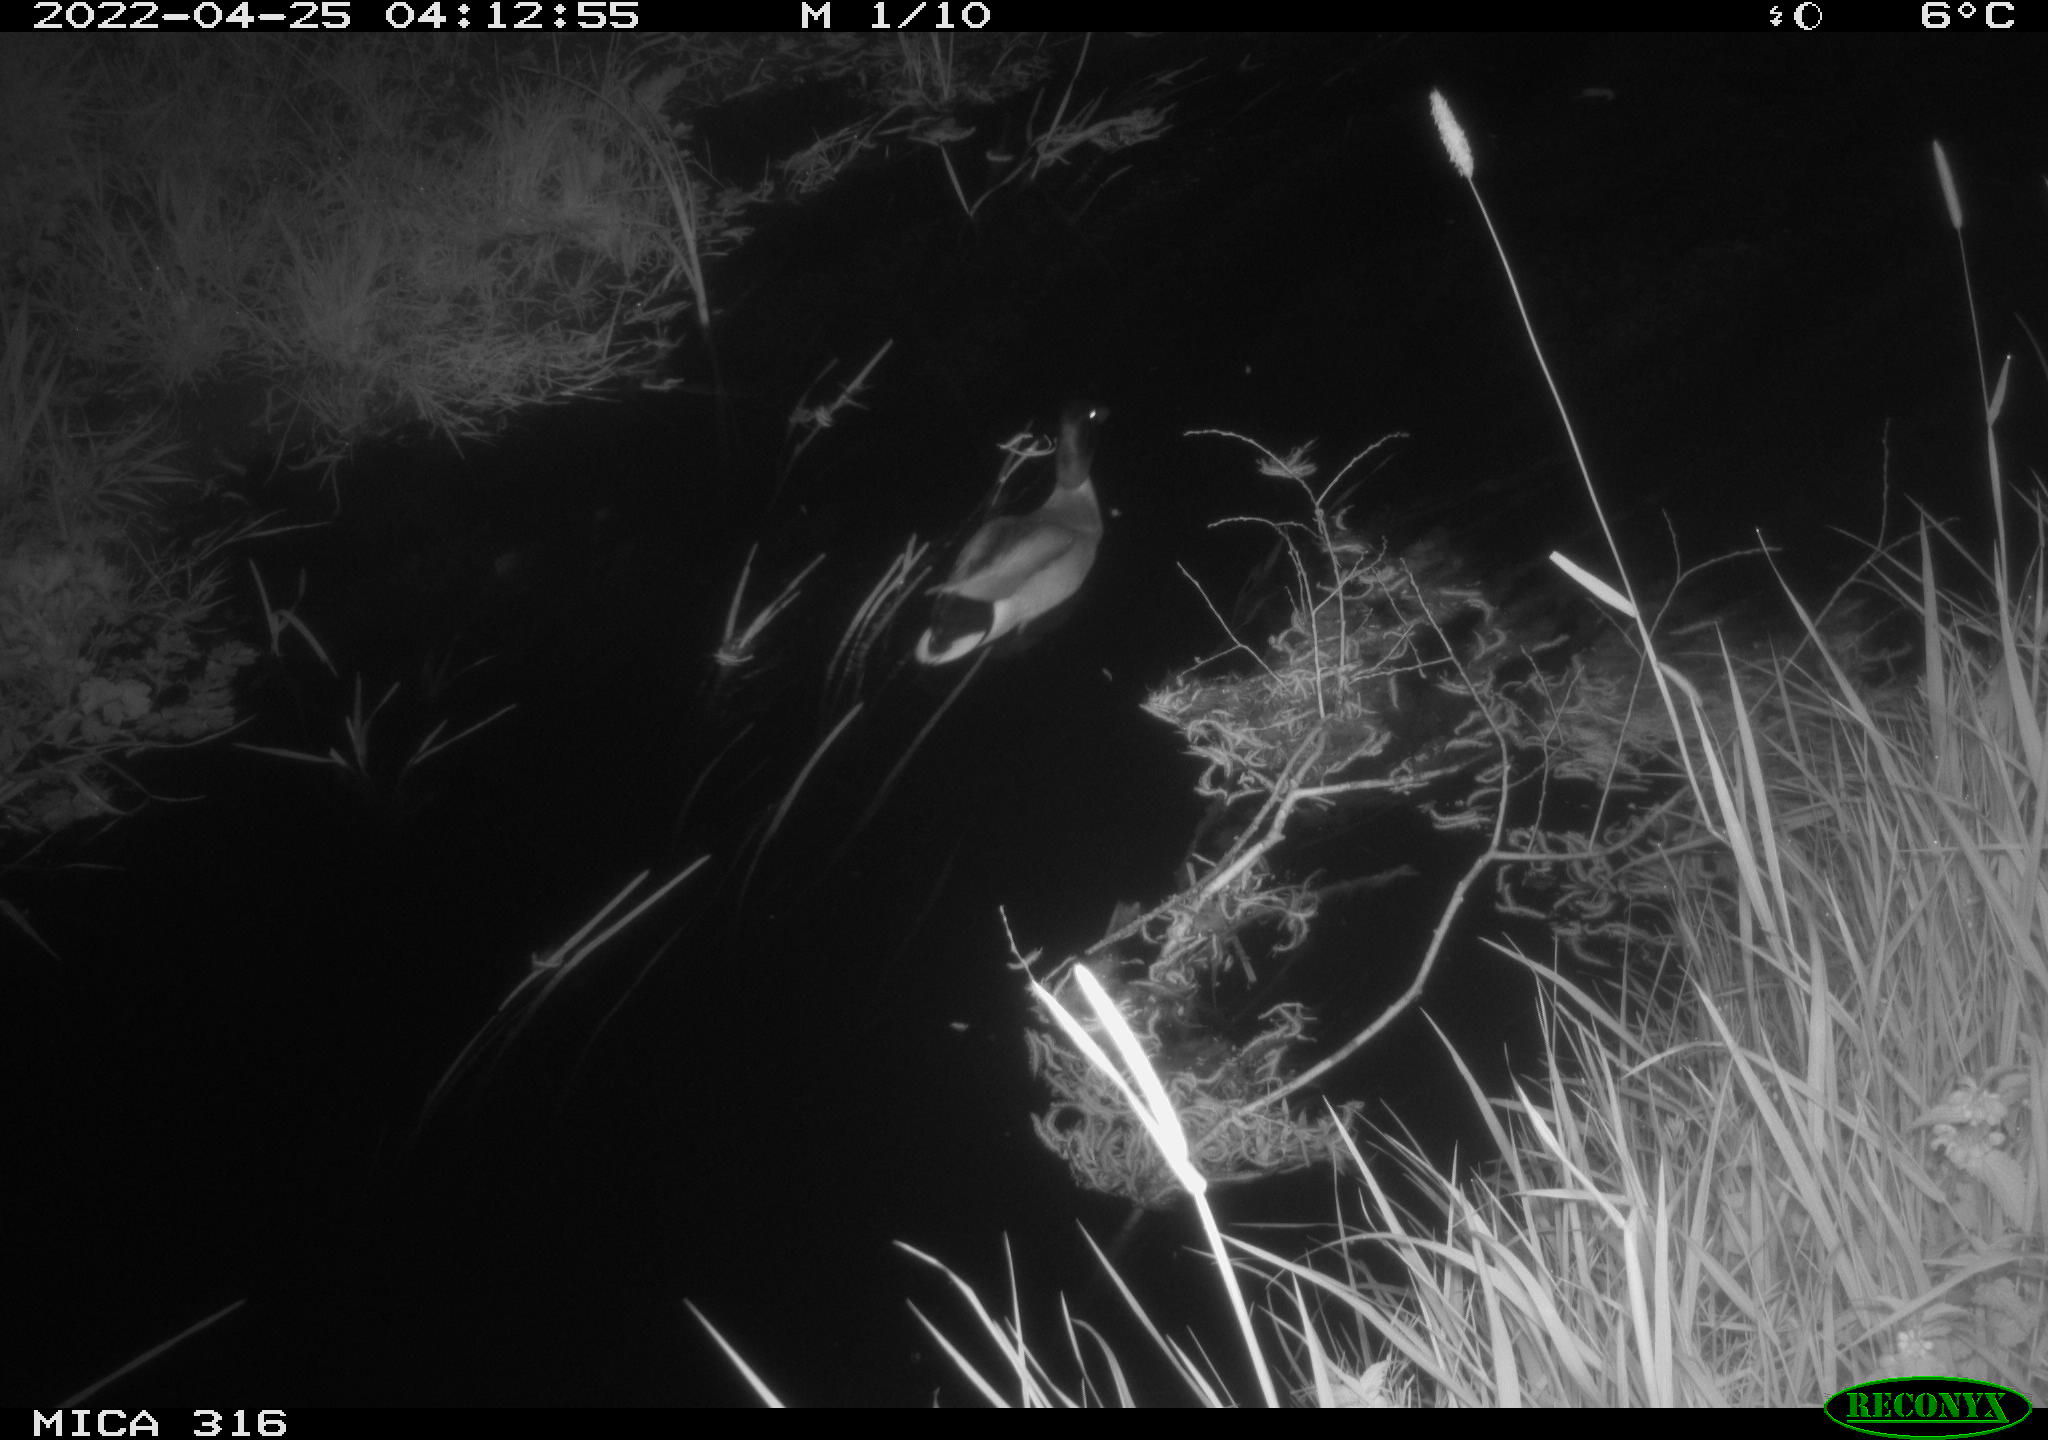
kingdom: Animalia
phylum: Chordata
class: Aves
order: Anseriformes
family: Anatidae
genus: Anas
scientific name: Anas platyrhynchos
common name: Mallard
